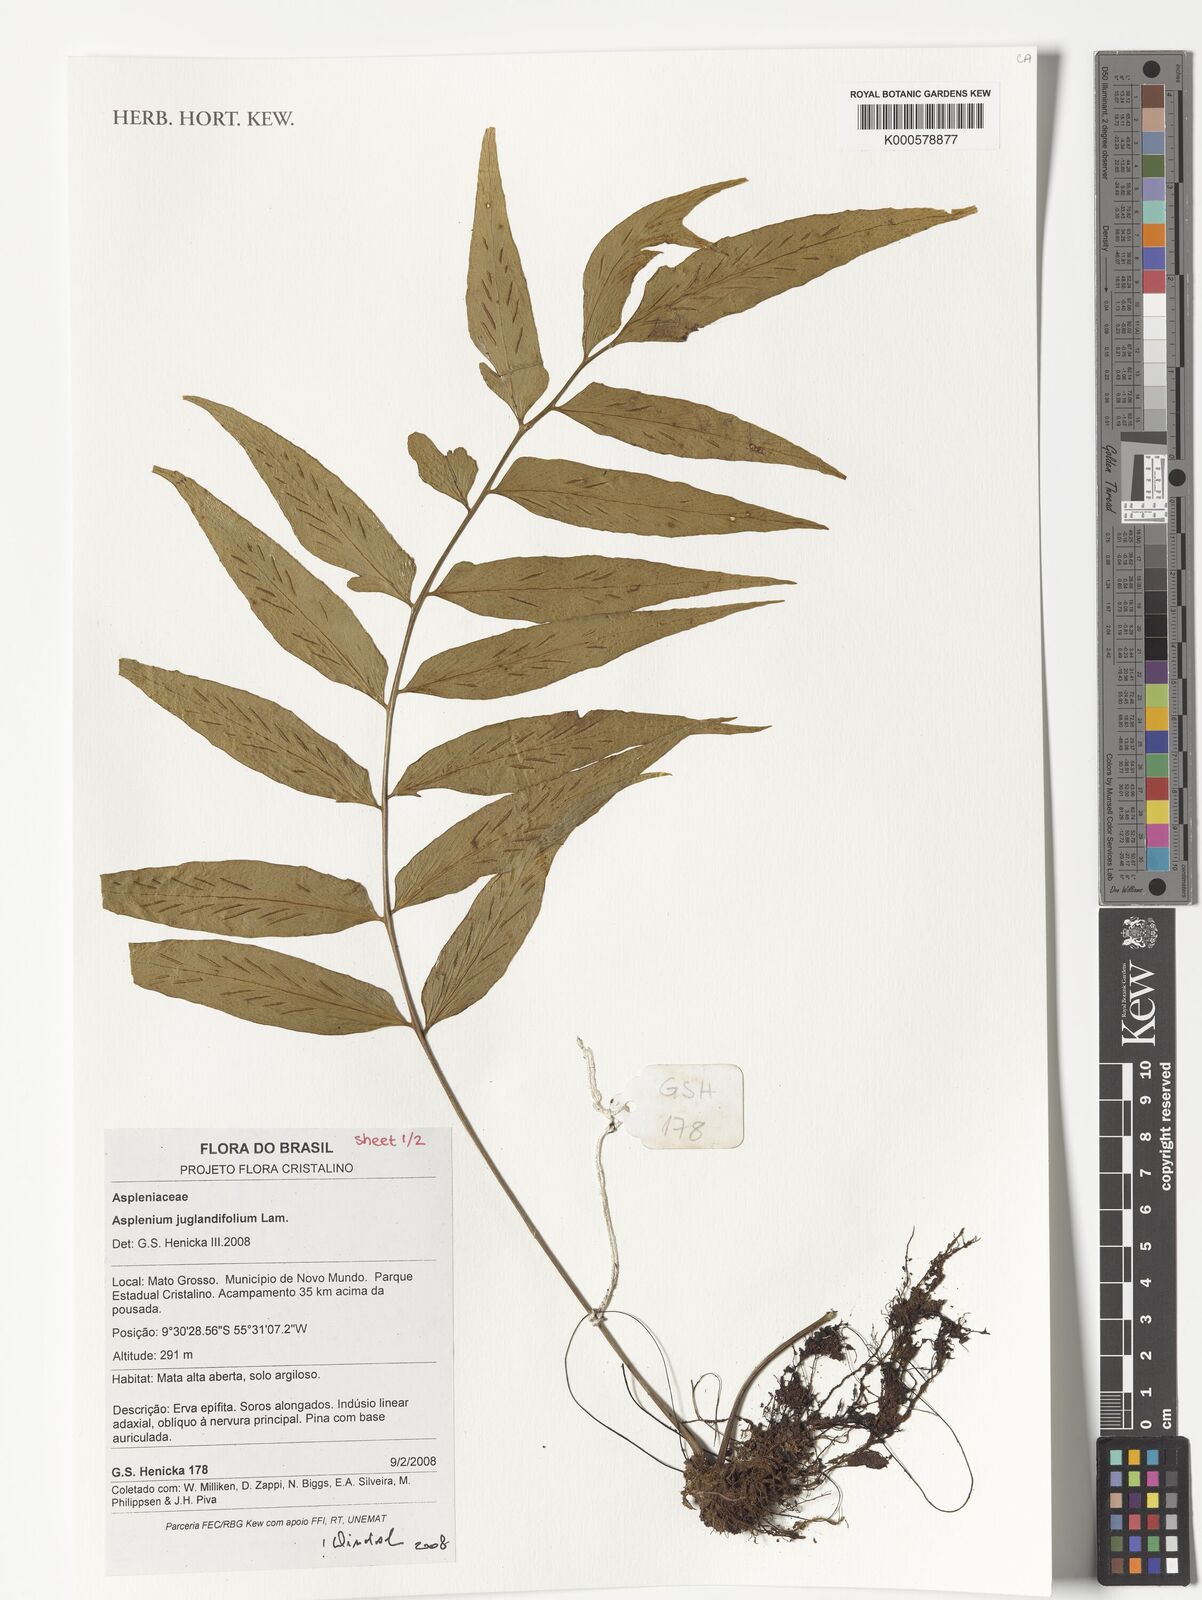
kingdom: Plantae
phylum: Tracheophyta
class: Polypodiopsida
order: Polypodiales
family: Aspleniaceae
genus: Asplenium
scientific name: Asplenium juglandifolium
